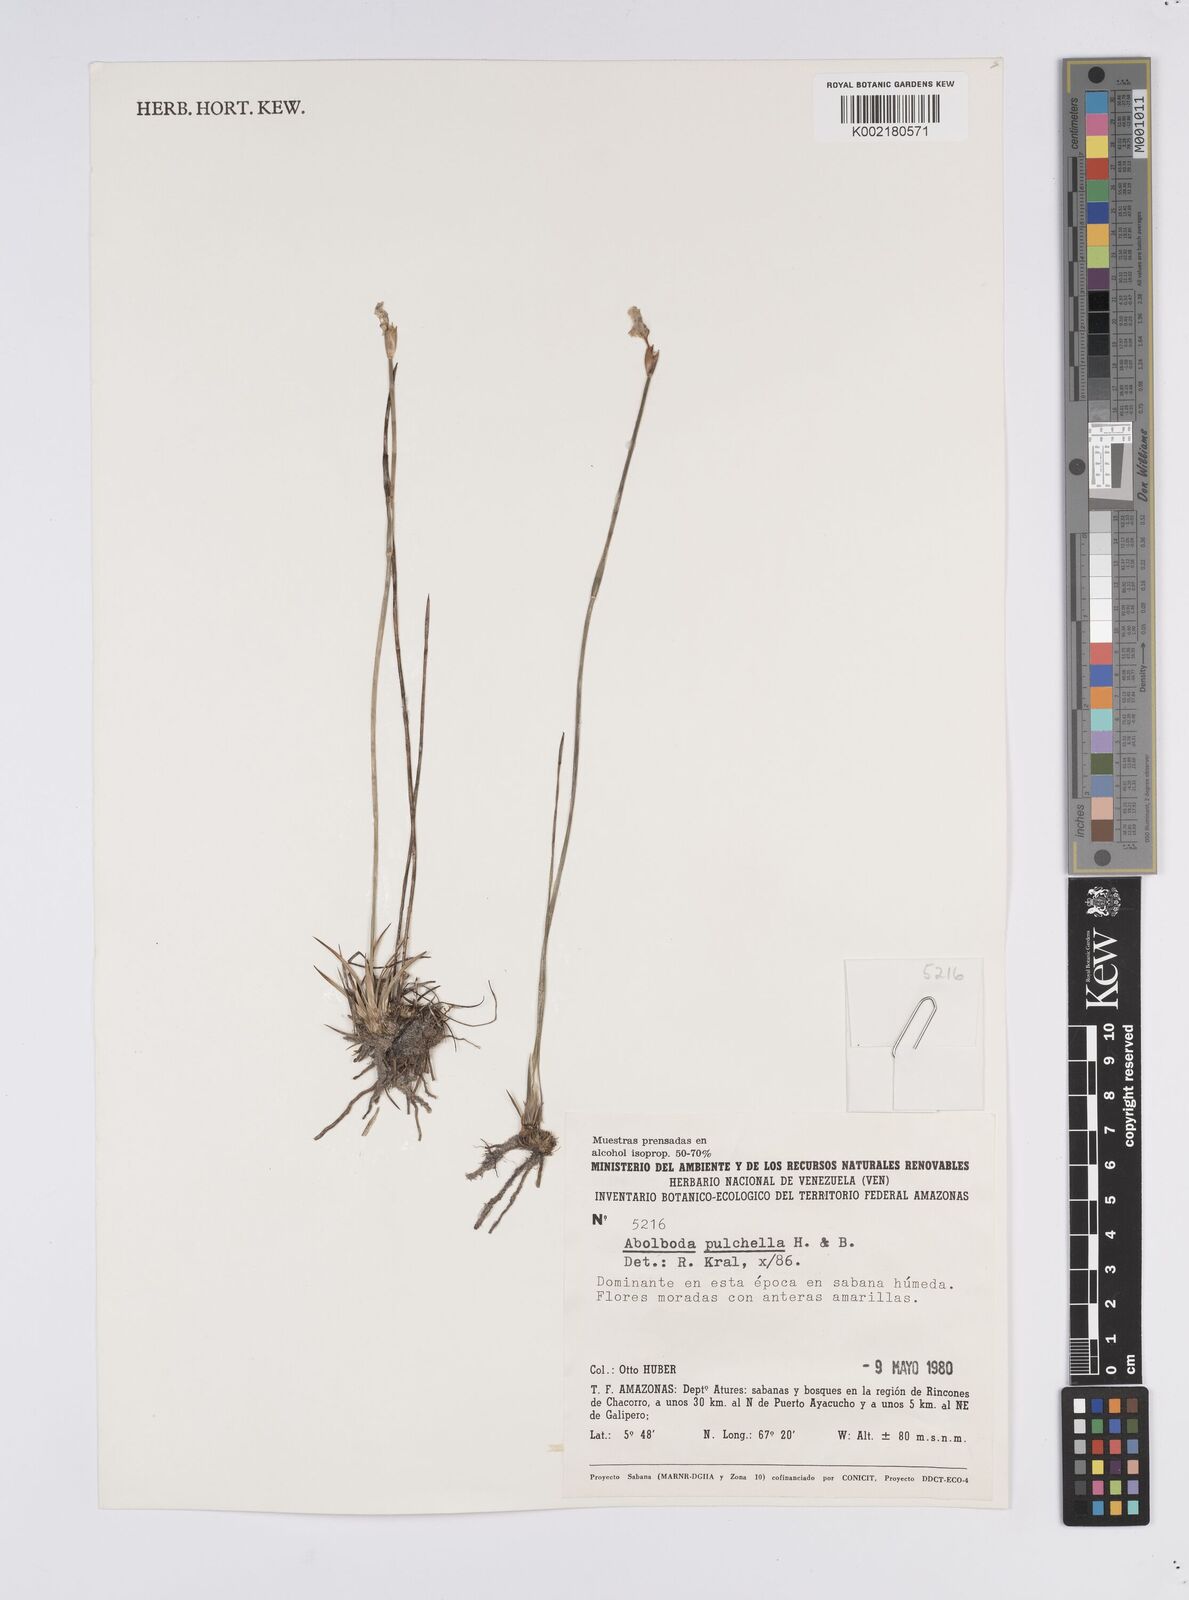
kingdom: Plantae
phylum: Tracheophyta
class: Liliopsida
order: Poales
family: Xyridaceae
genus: Abolboda
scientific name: Abolboda pulchella
